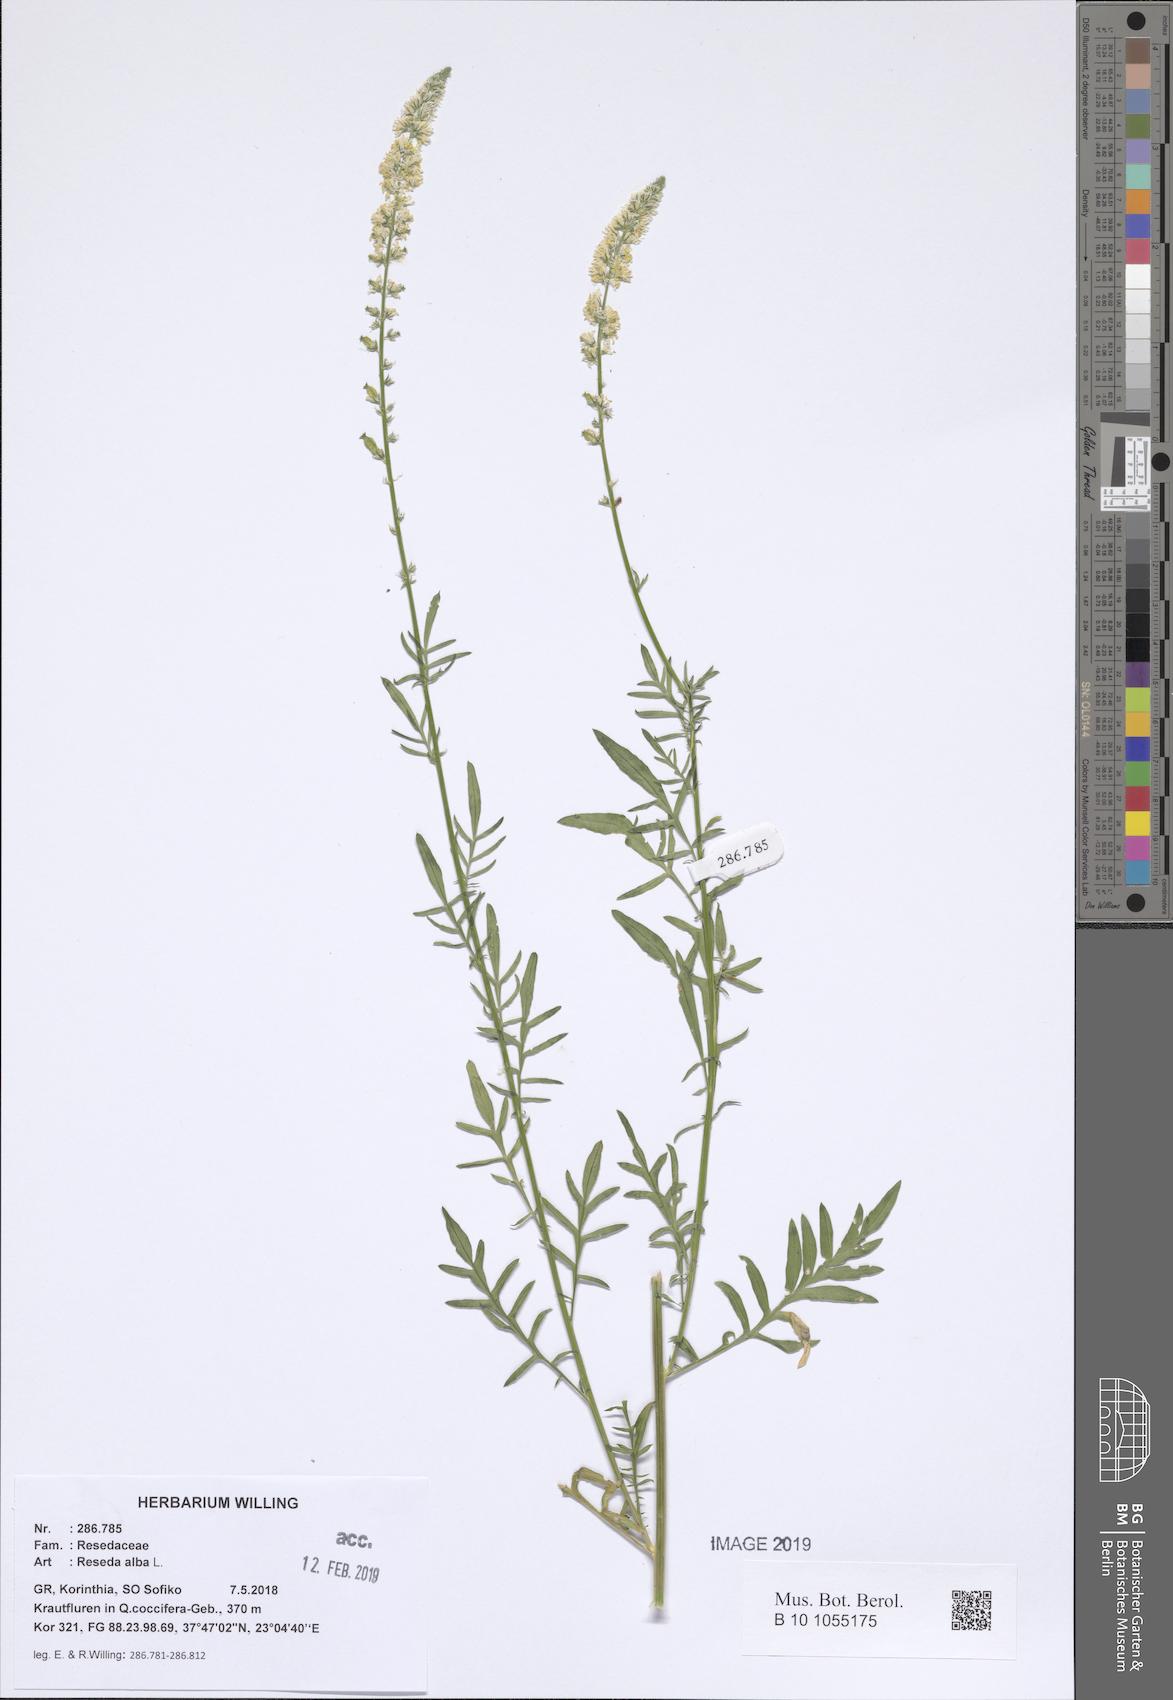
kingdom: Plantae
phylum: Tracheophyta
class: Magnoliopsida
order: Brassicales
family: Resedaceae
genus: Reseda
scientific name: Reseda alba
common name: White mignonette
